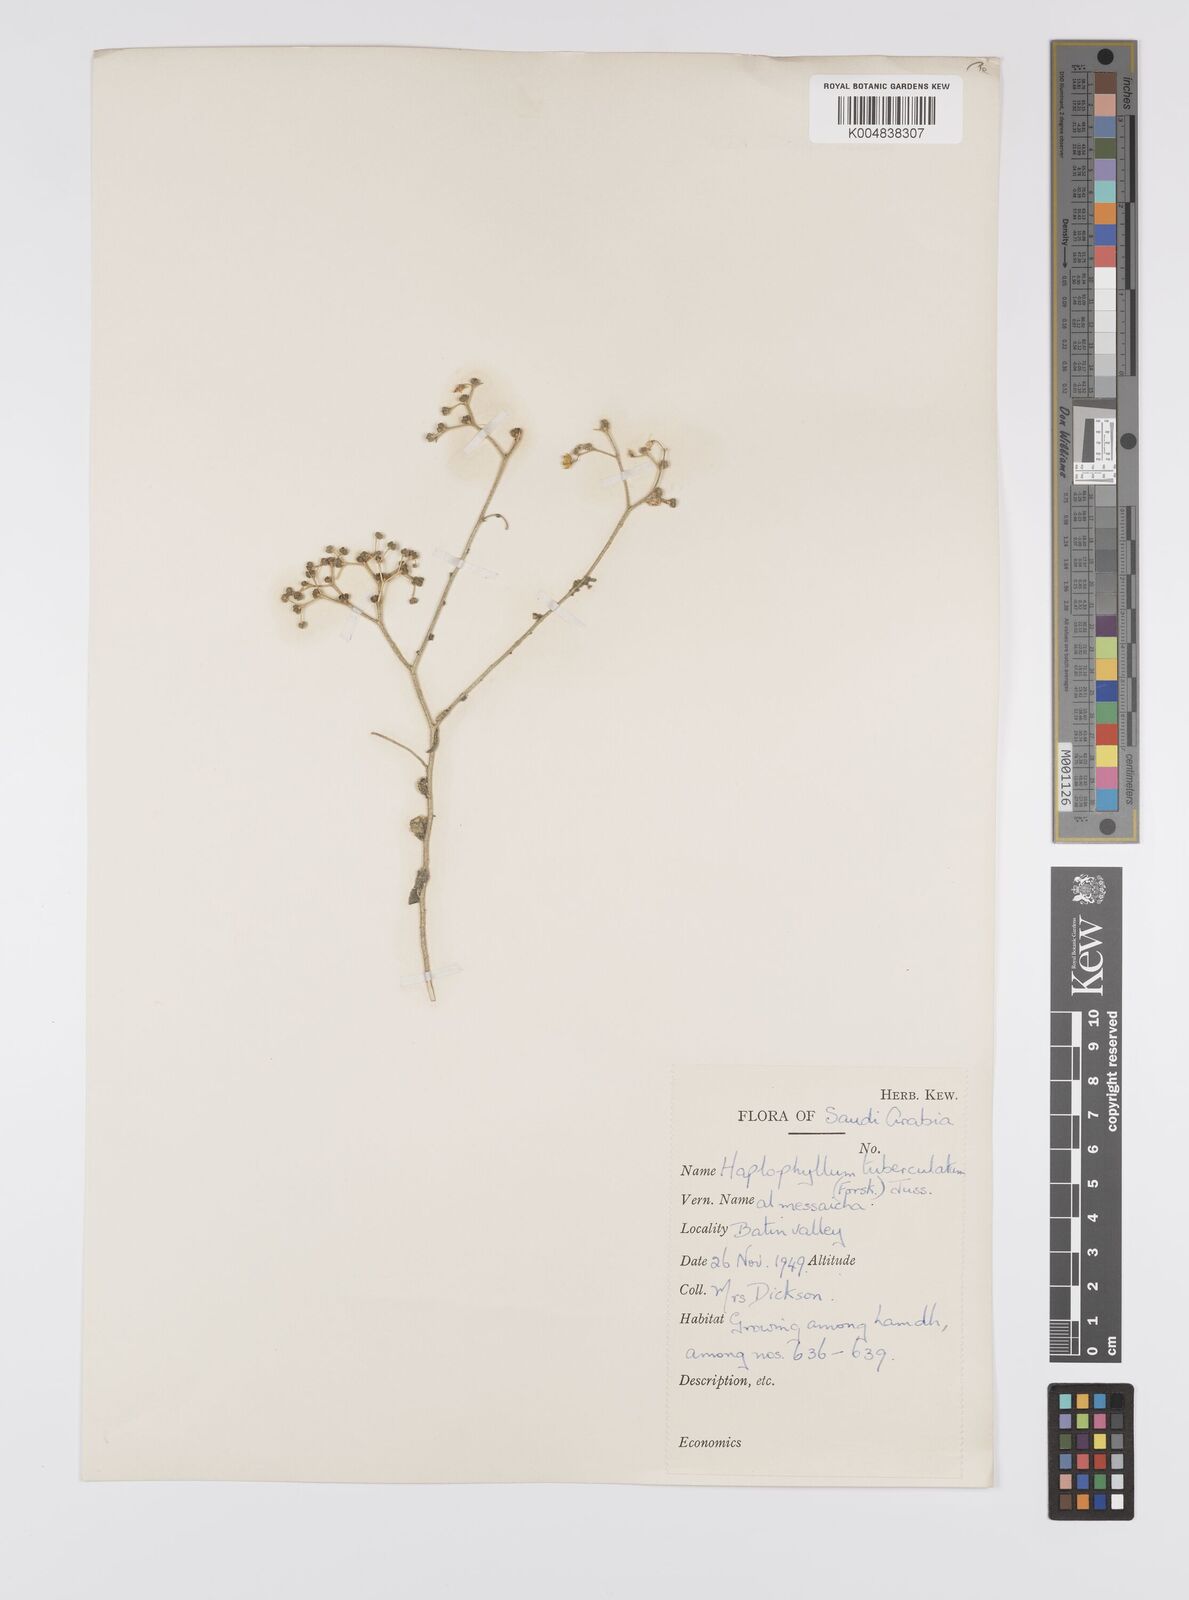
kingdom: Plantae
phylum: Tracheophyta
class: Magnoliopsida
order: Sapindales
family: Rutaceae
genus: Haplophyllum
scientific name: Haplophyllum tuberculatum
